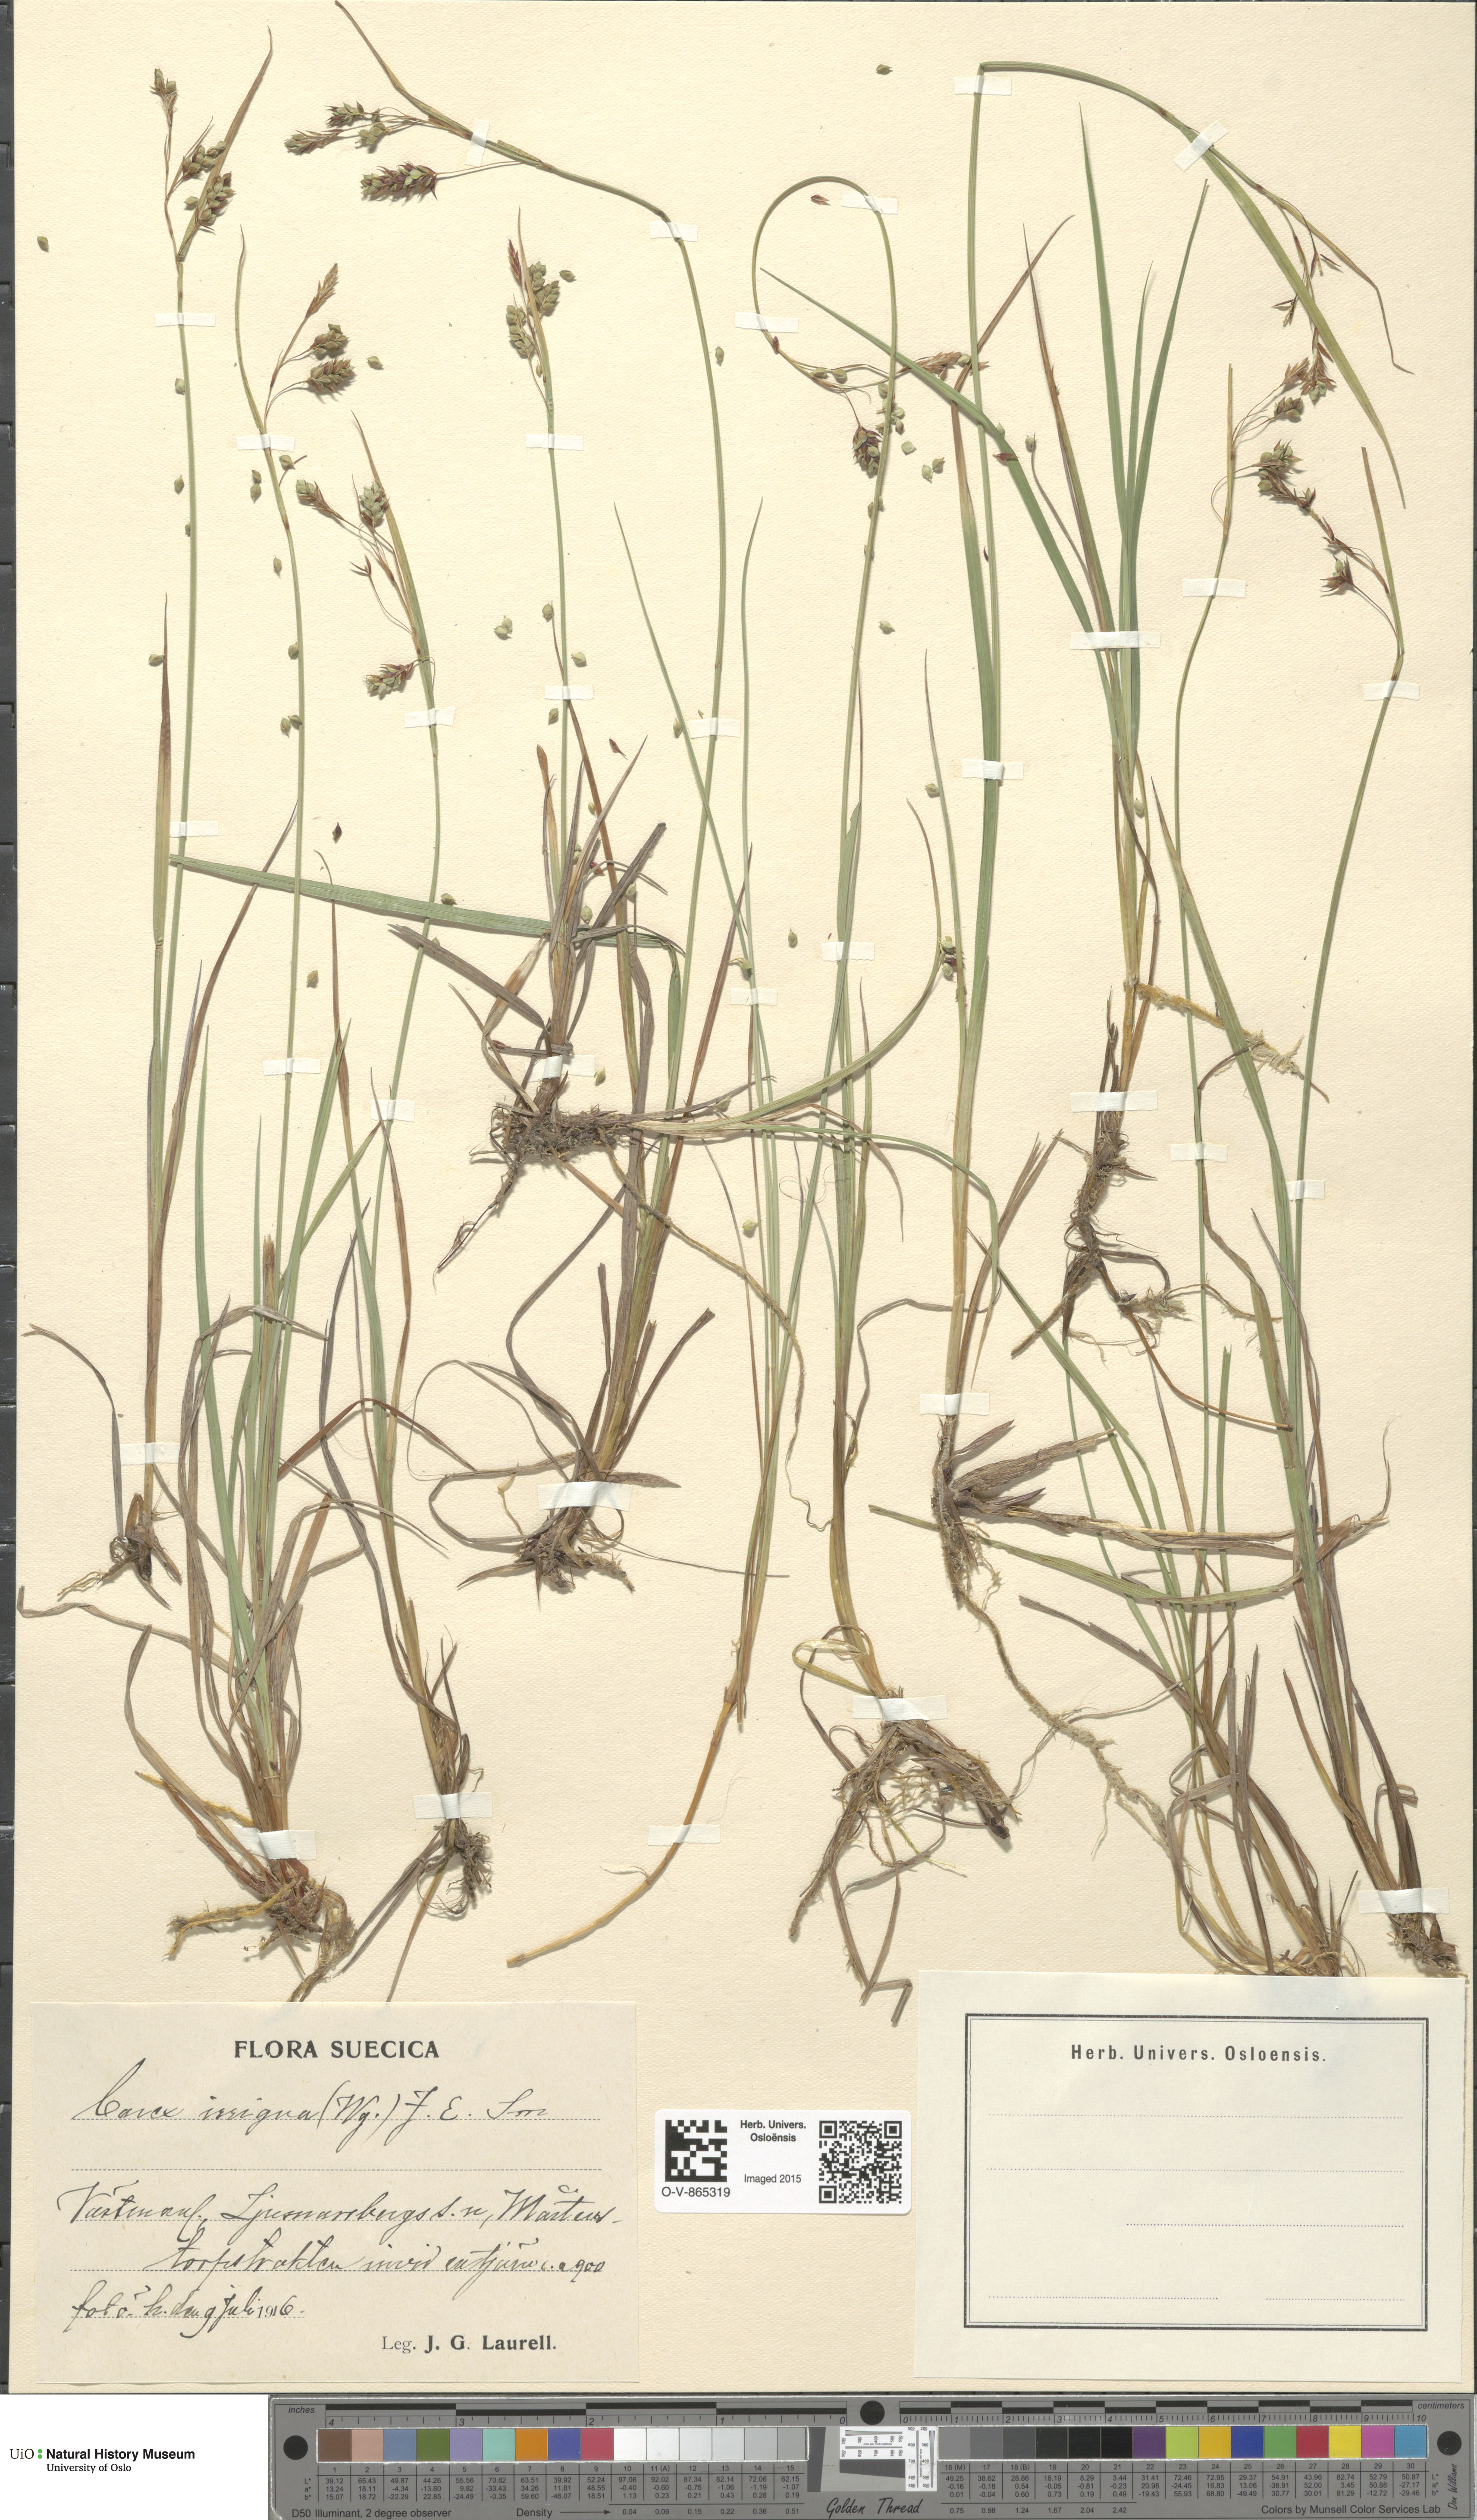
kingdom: Plantae
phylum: Tracheophyta
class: Liliopsida
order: Poales
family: Cyperaceae
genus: Carex
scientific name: Carex magellanica
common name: Bog sedge
